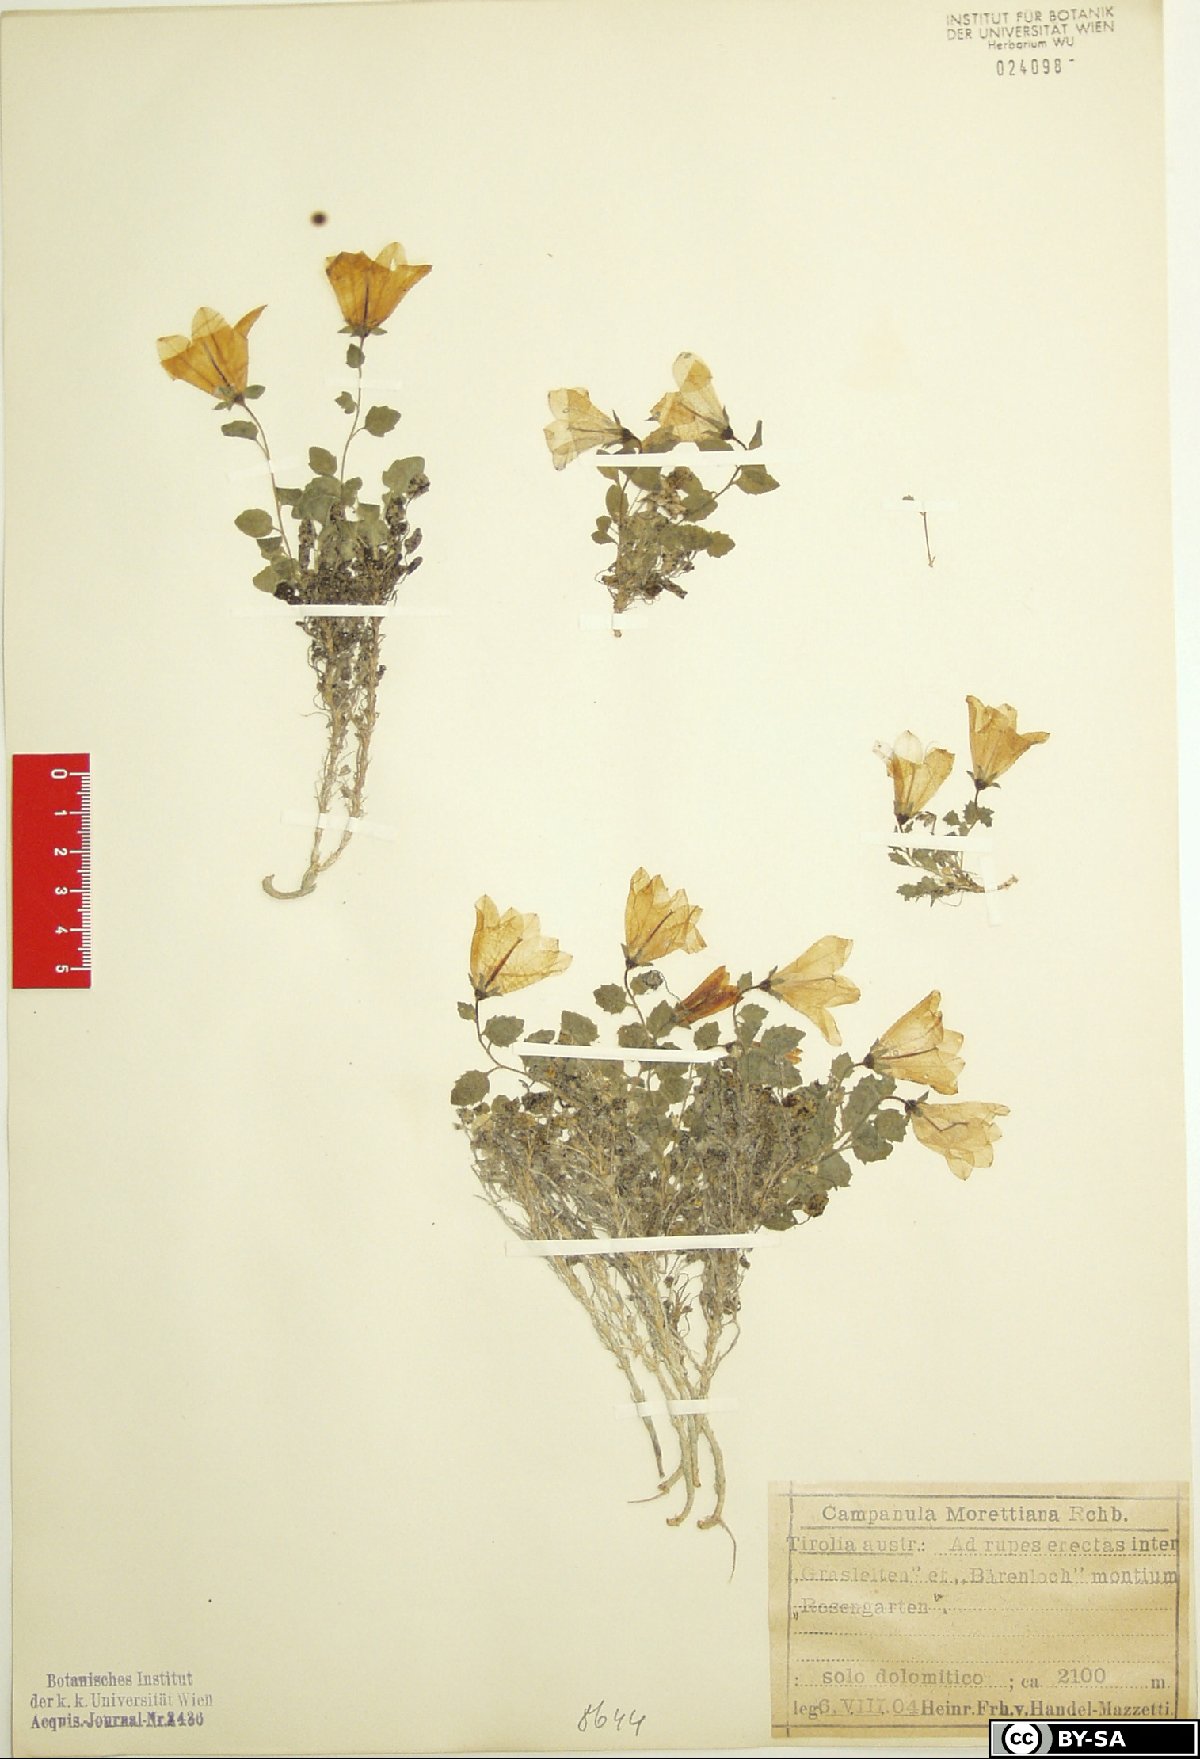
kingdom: Plantae
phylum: Tracheophyta
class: Magnoliopsida
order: Asterales
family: Campanulaceae
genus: Campanula
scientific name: Campanula morettiana
